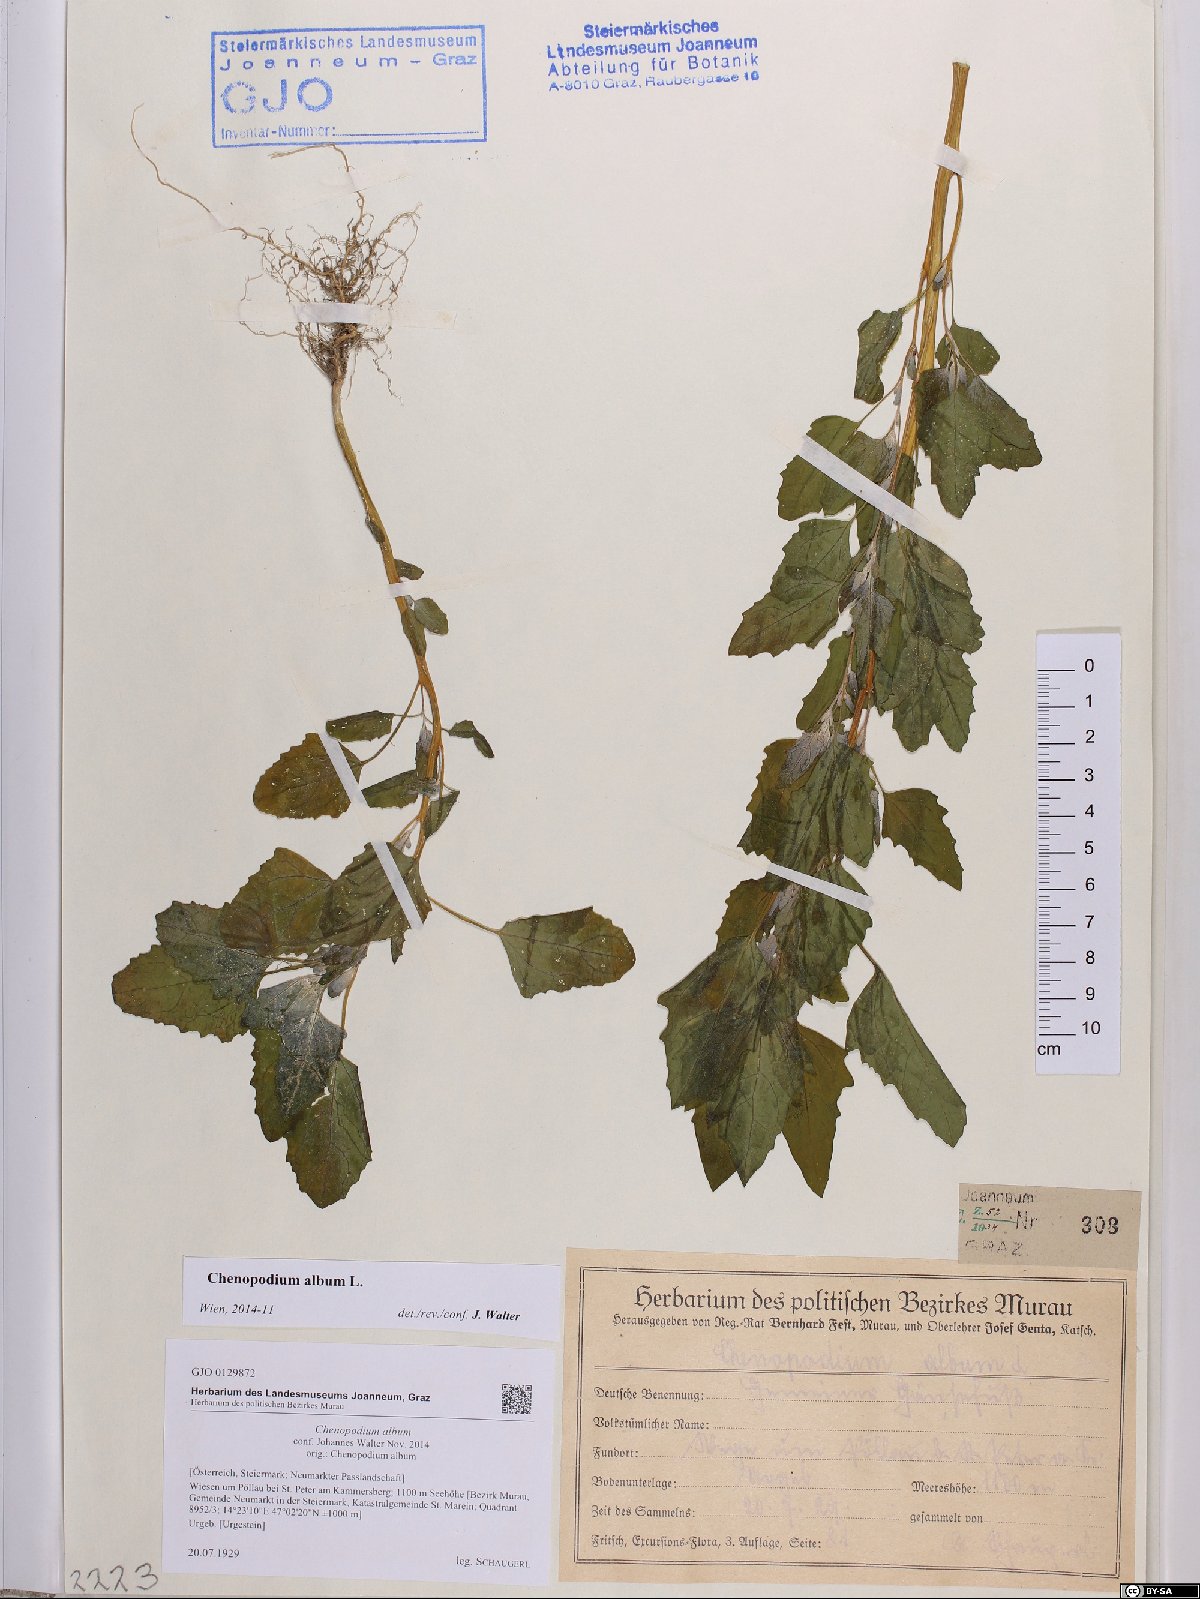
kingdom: Plantae
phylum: Tracheophyta
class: Magnoliopsida
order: Caryophyllales
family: Amaranthaceae
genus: Chenopodium
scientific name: Chenopodium album
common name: Fat-hen
